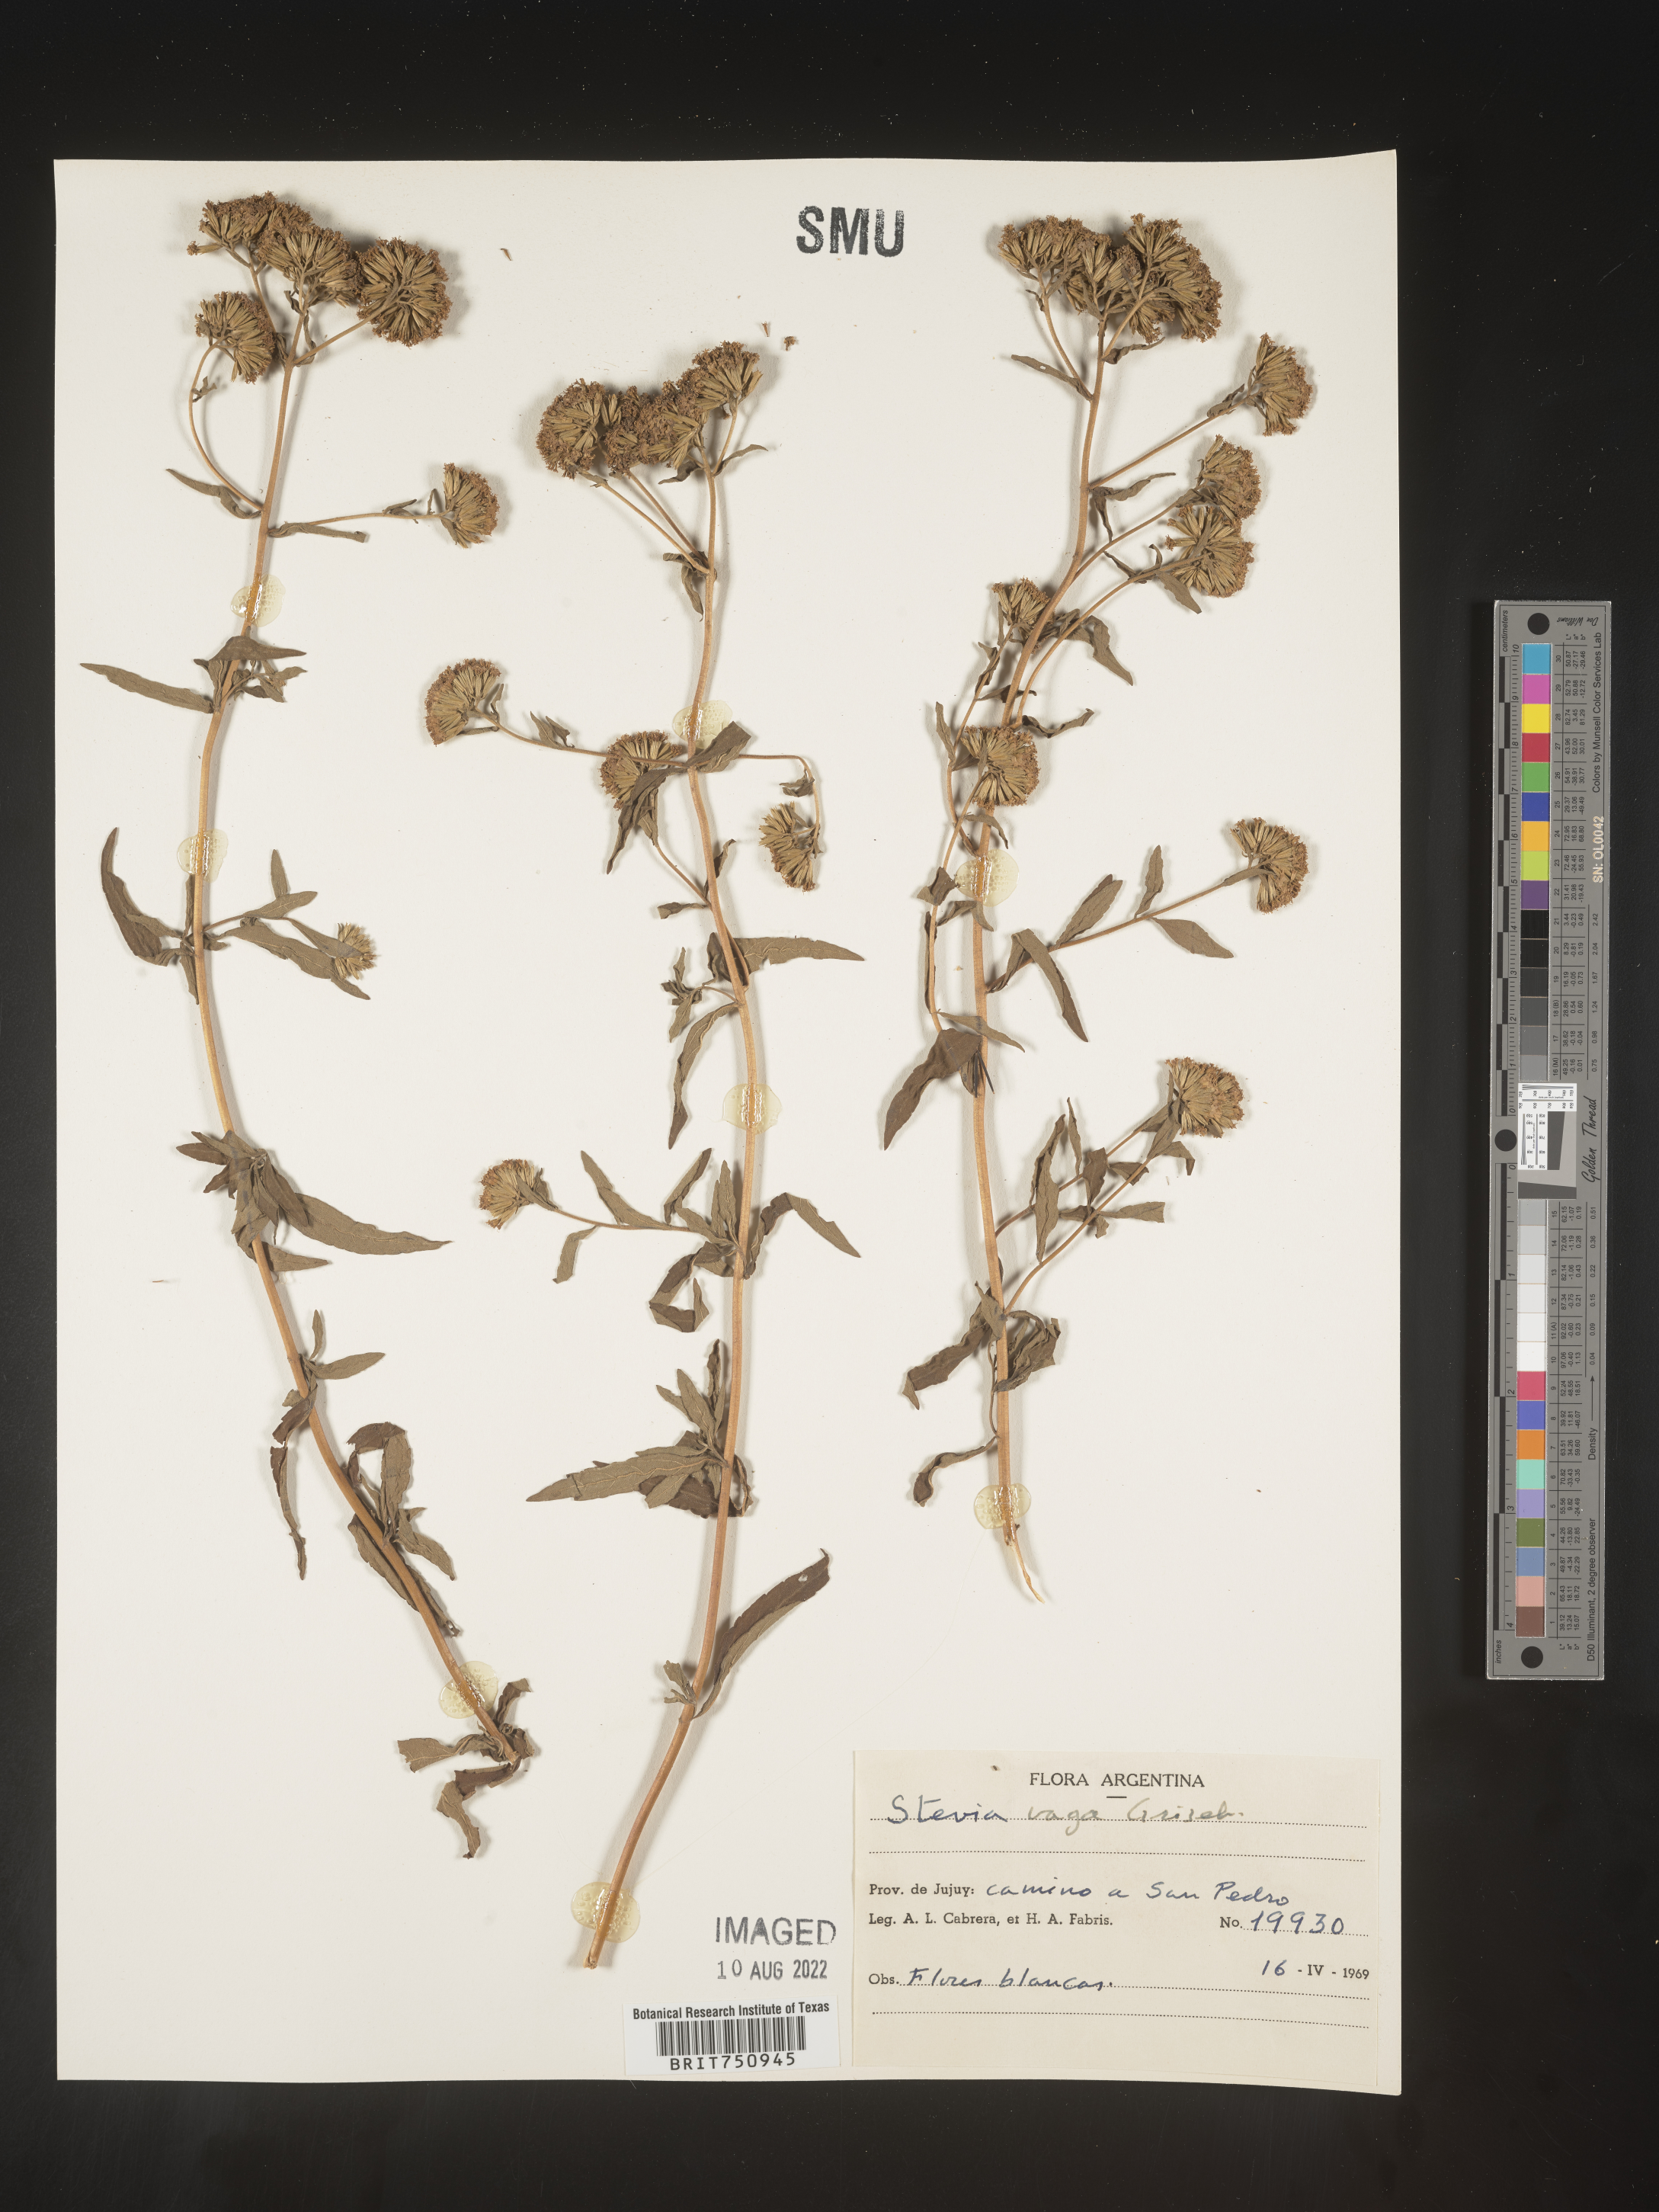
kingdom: Plantae
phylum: Tracheophyta
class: Magnoliopsida
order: Asterales
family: Asteraceae
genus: Stevia
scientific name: Stevia
